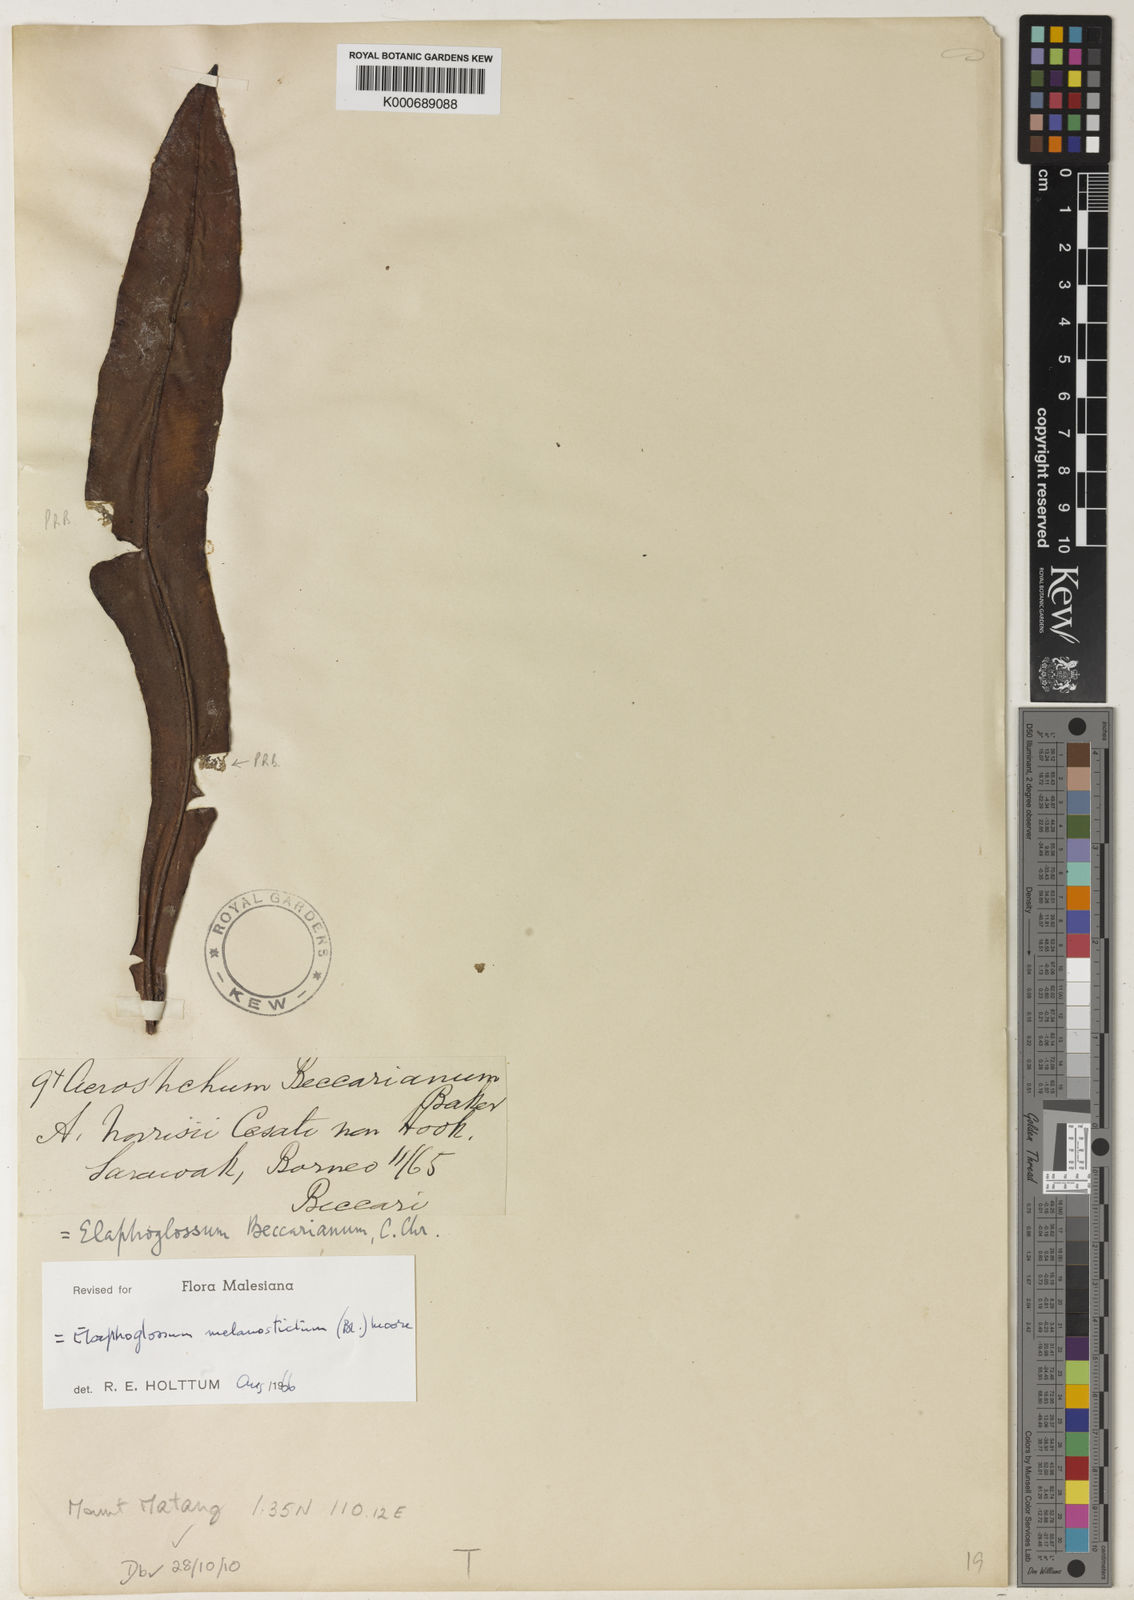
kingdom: Plantae
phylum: Tracheophyta
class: Polypodiopsida
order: Polypodiales
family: Dryopteridaceae
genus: Elaphoglossum
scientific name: Elaphoglossum melanostictum
